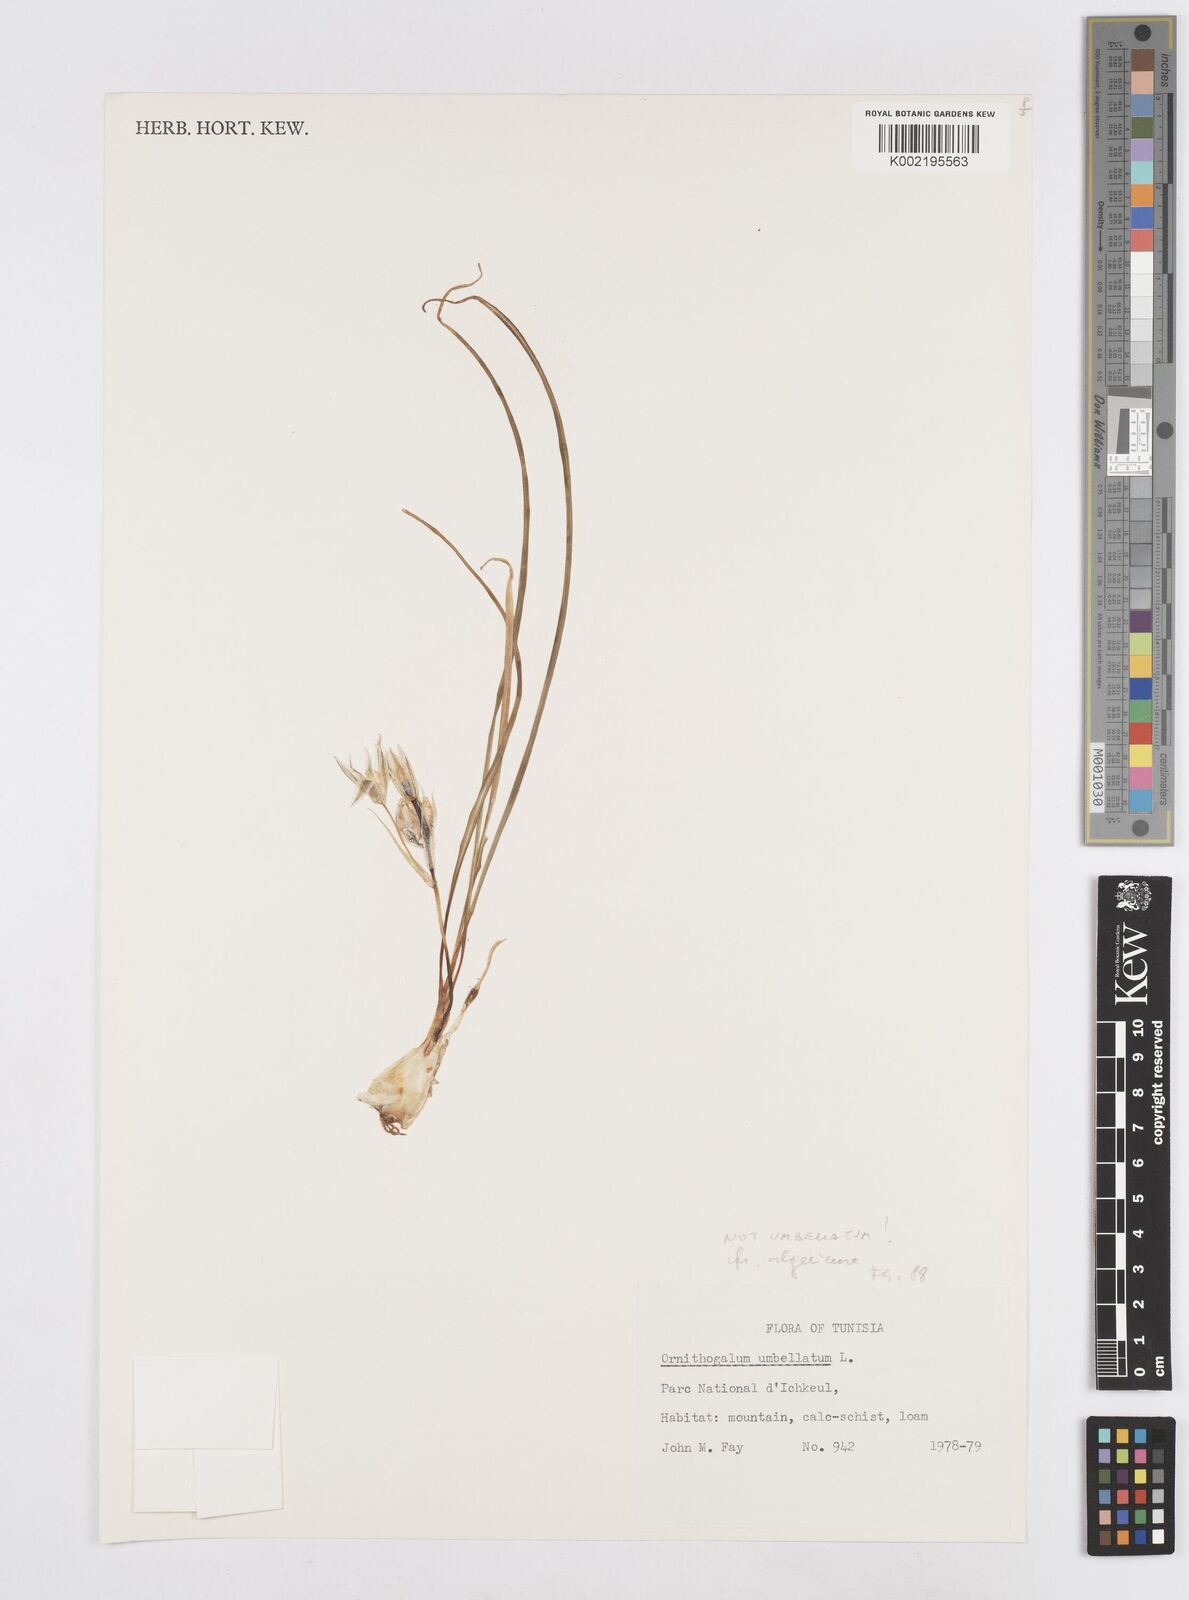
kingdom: Plantae
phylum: Tracheophyta
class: Liliopsida
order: Asparagales
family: Asparagaceae
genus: Ornithogalum
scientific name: Ornithogalum umbellatum
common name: Garden star-of-bethlehem
